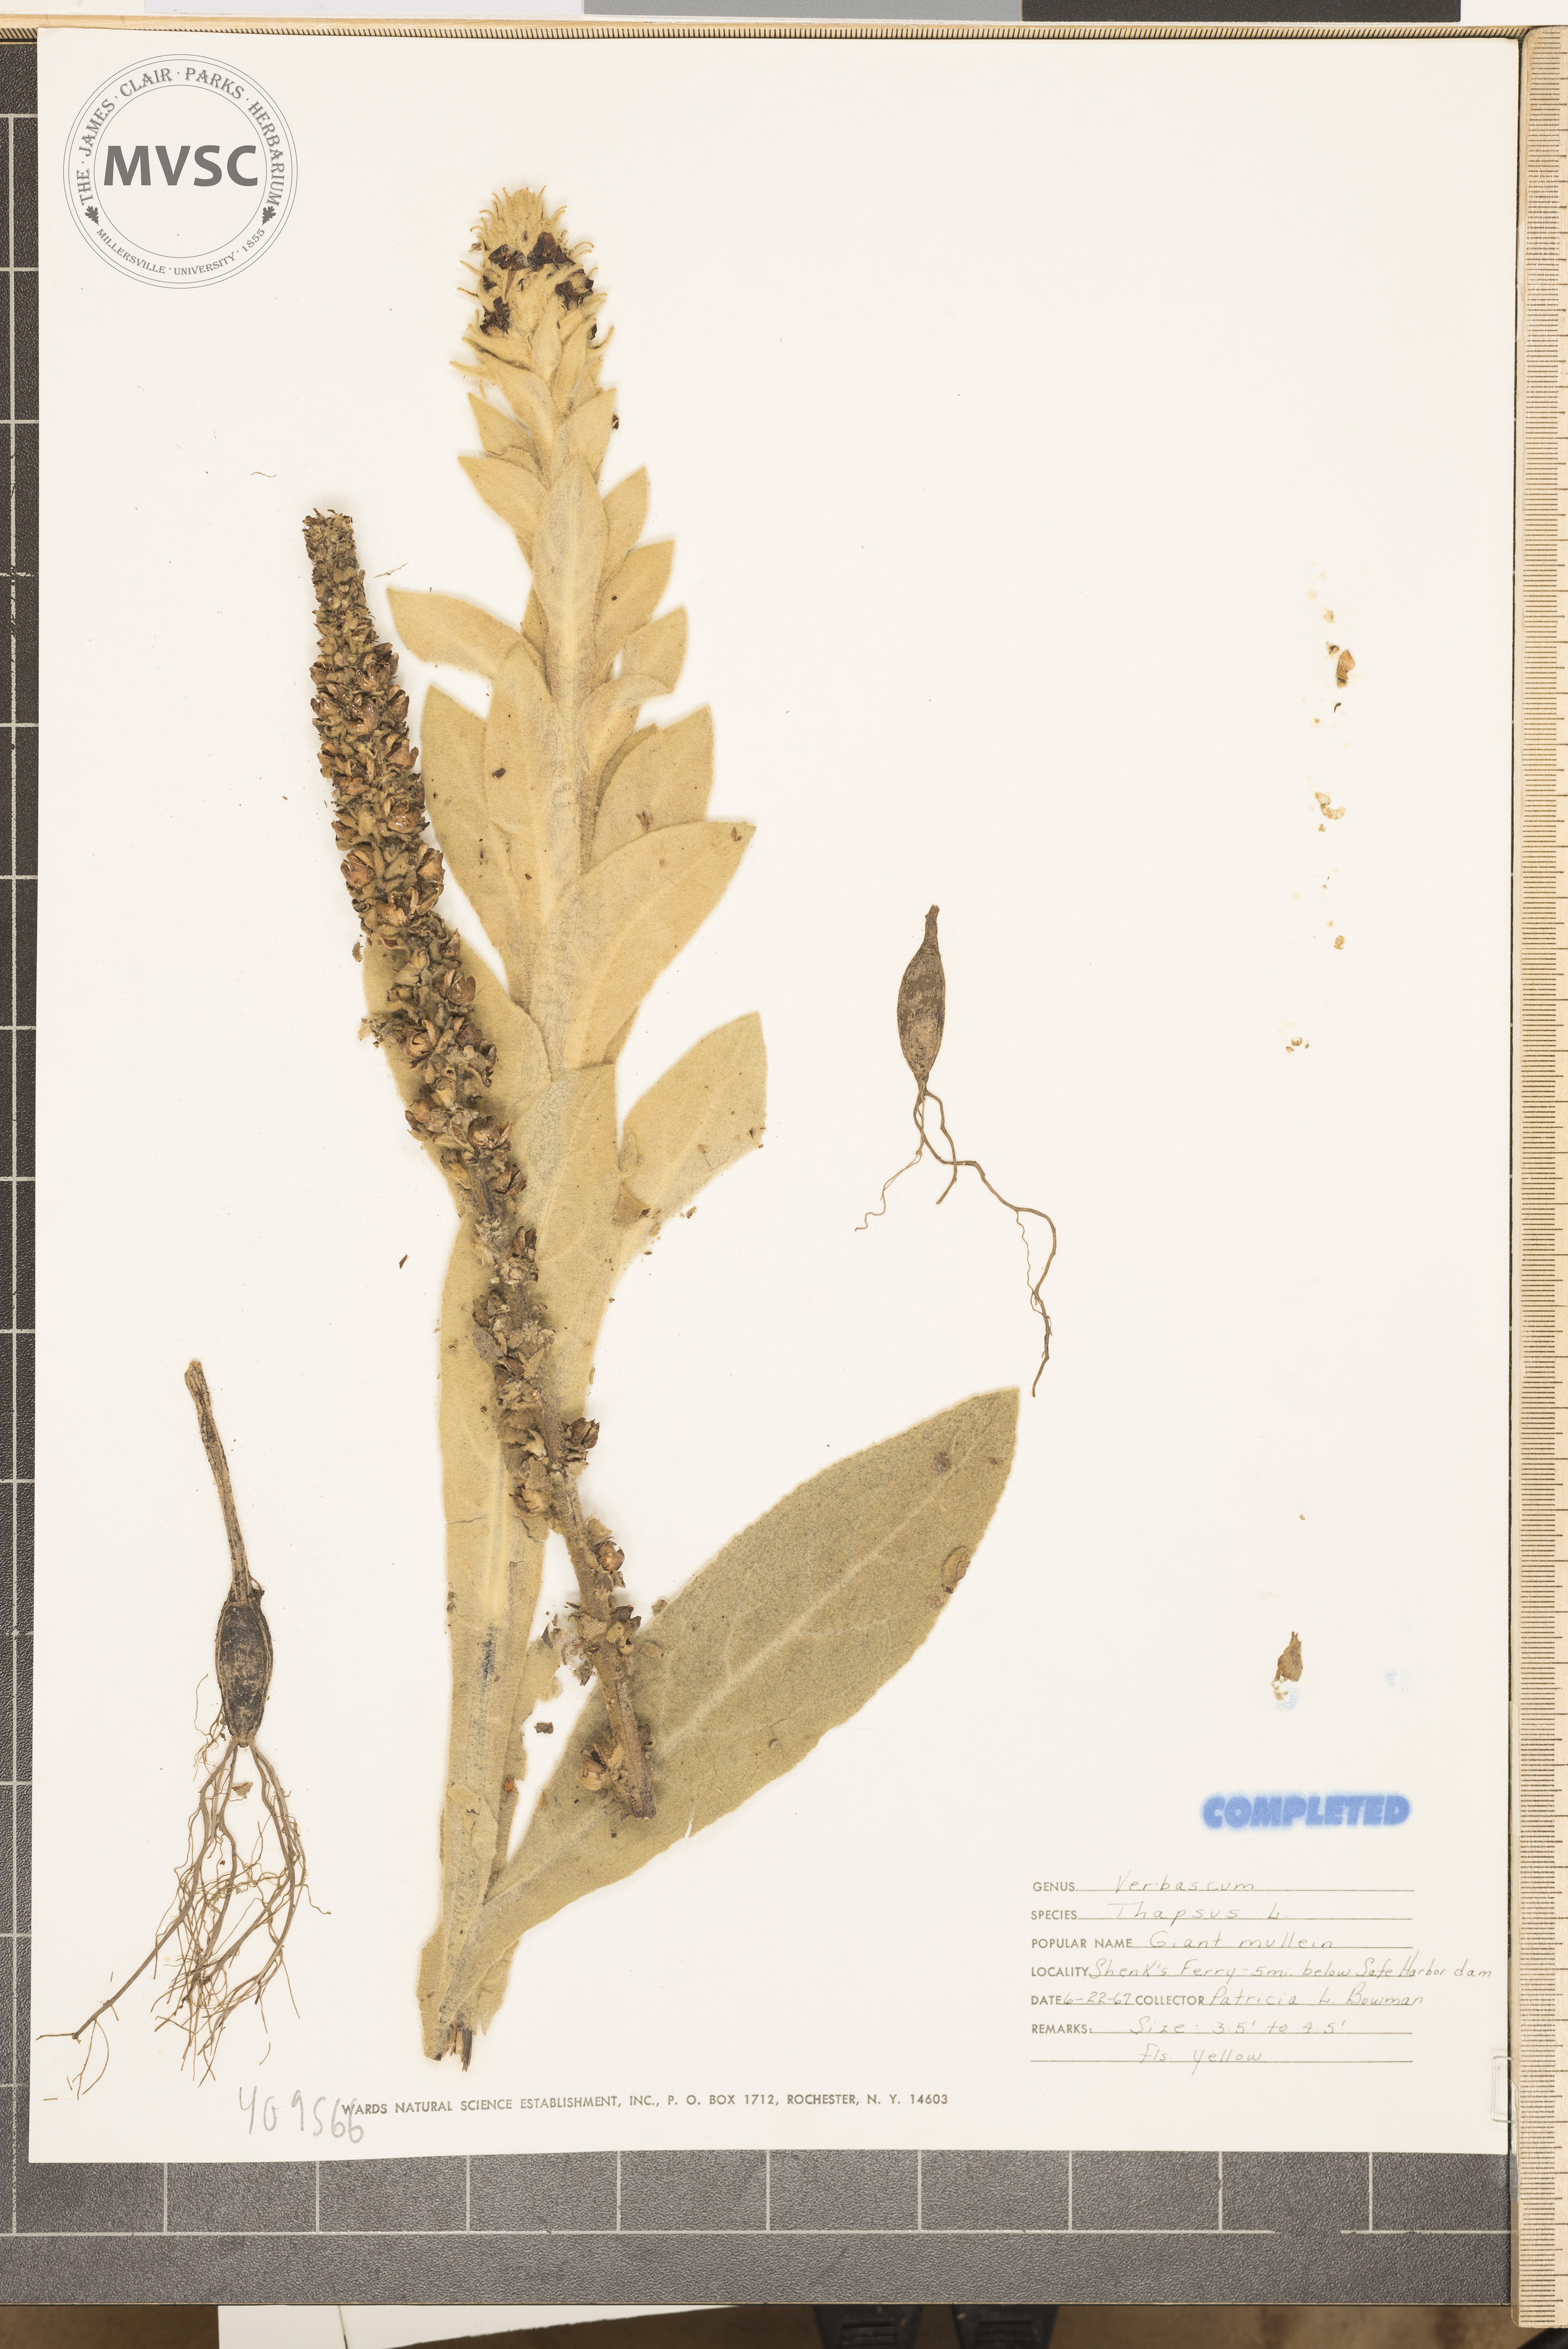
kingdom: Plantae
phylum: Tracheophyta
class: Magnoliopsida
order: Lamiales
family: Scrophulariaceae
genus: Verbascum
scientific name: Verbascum thapsus
